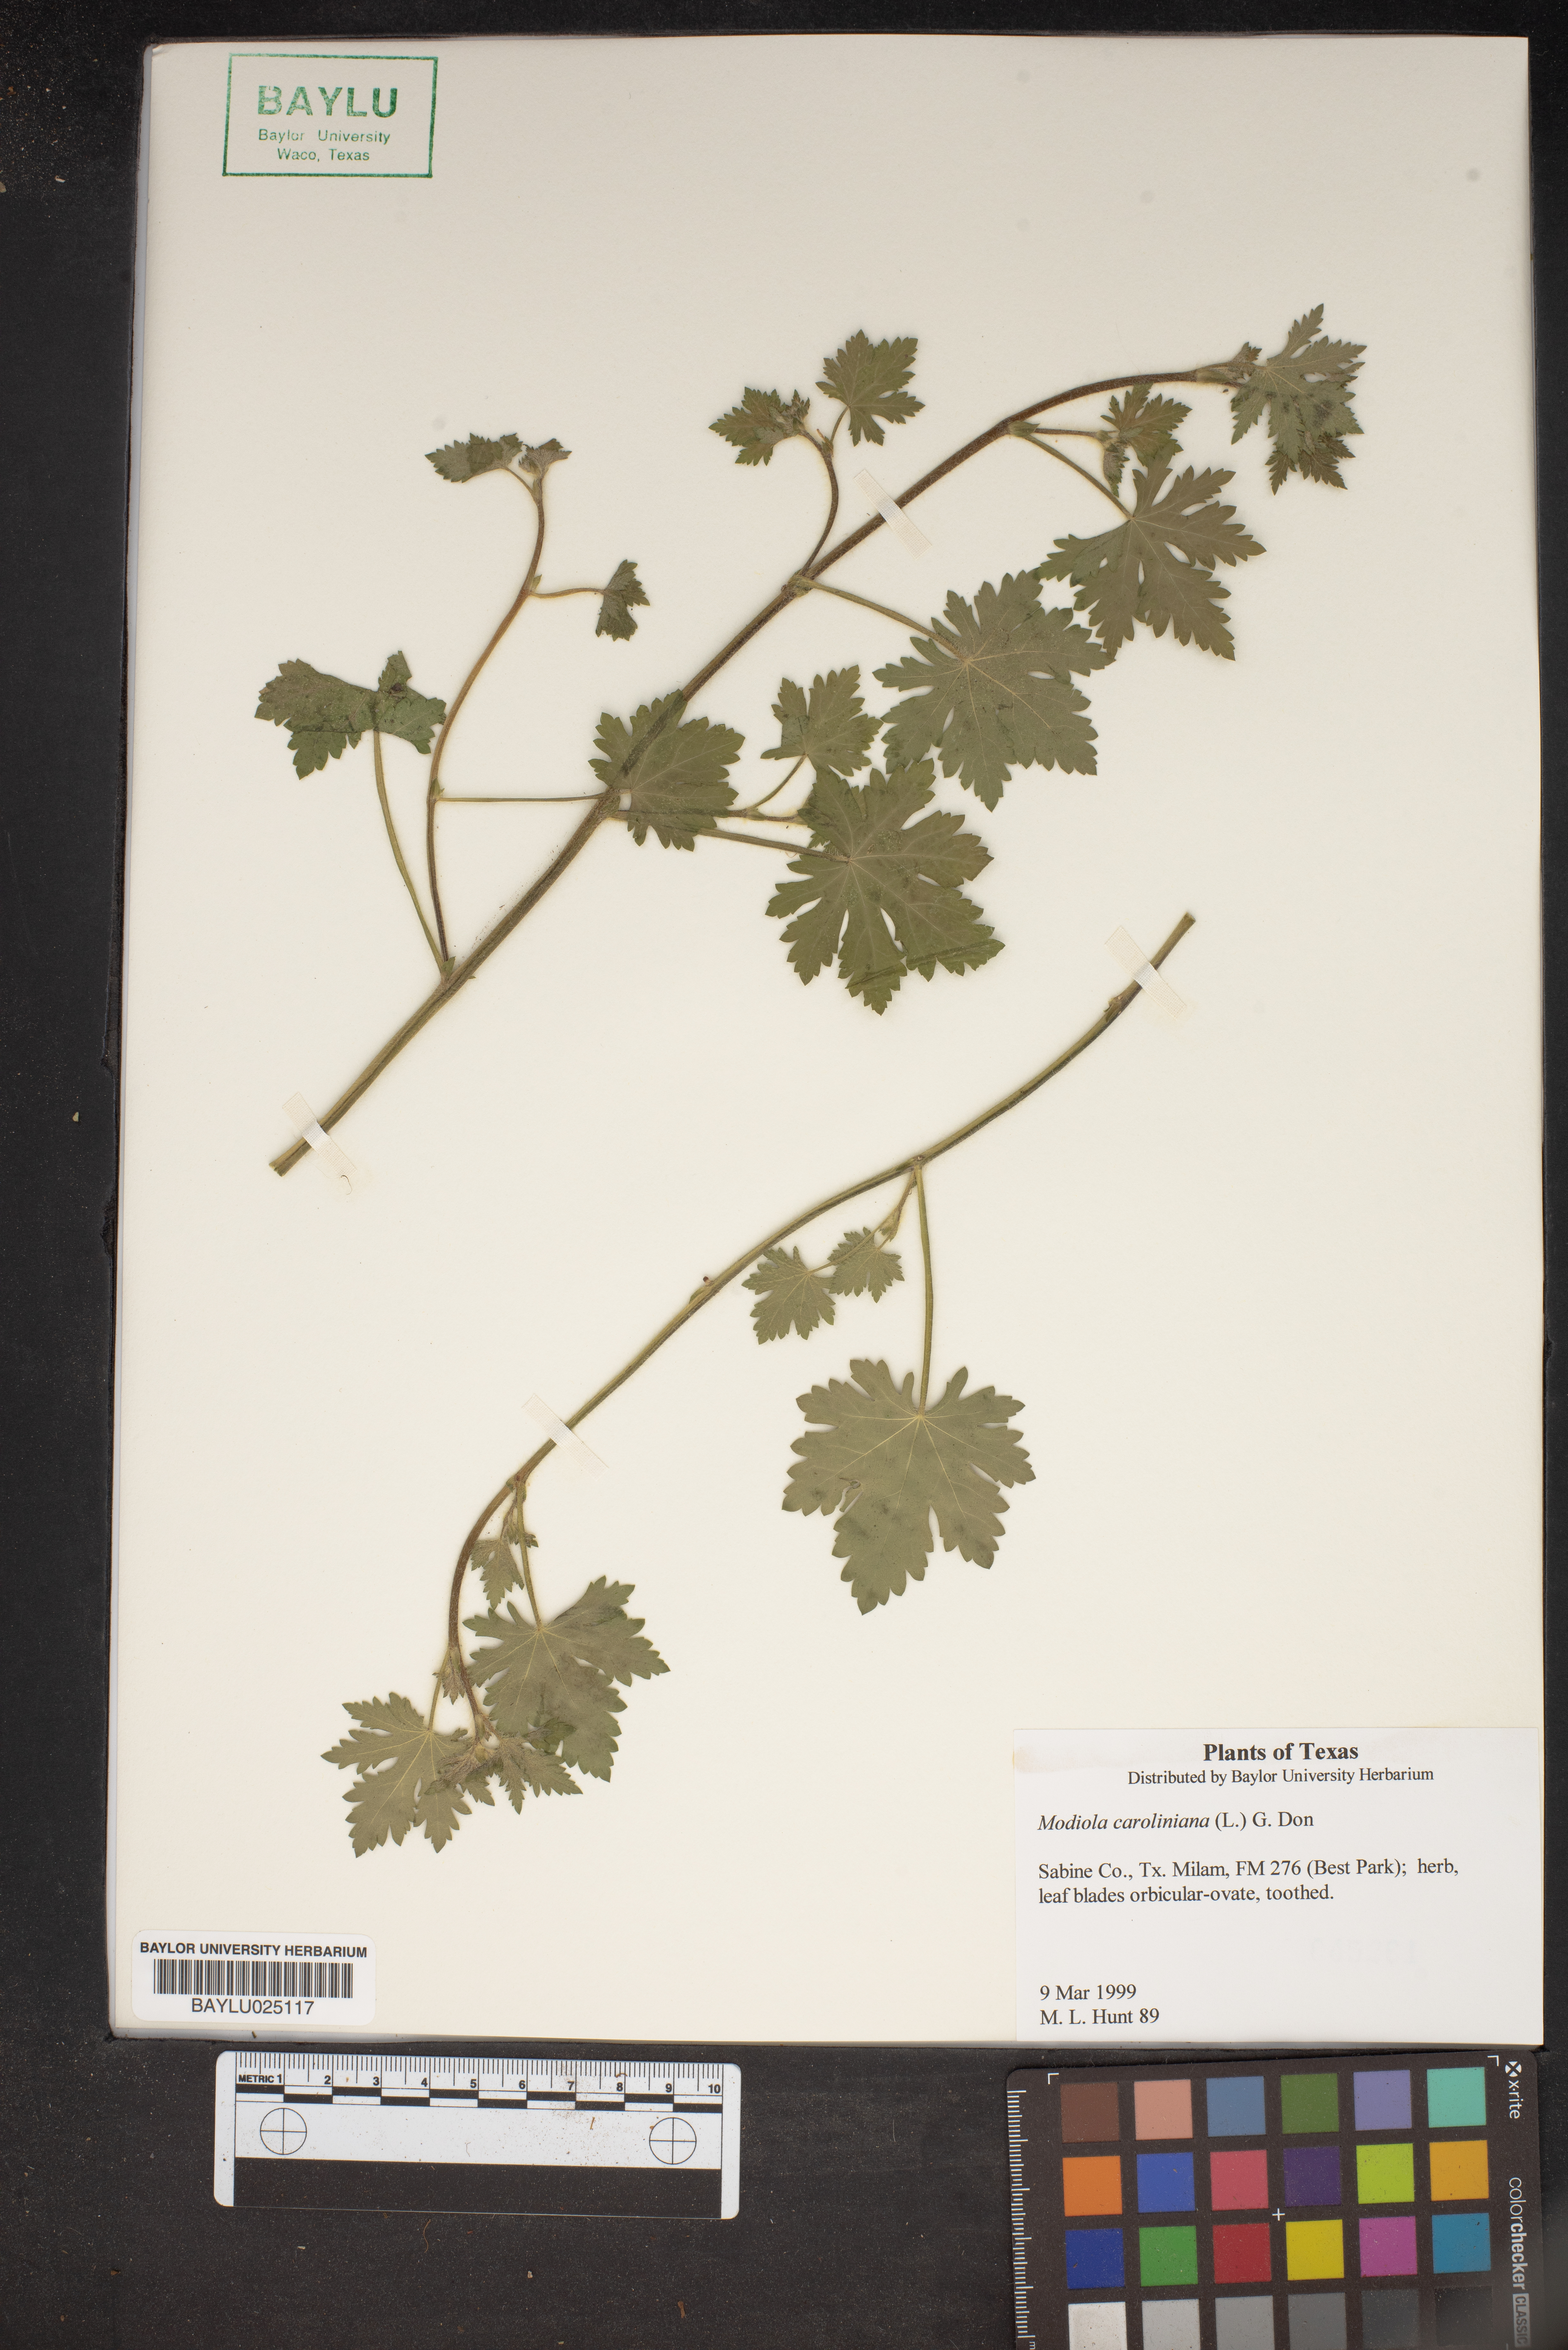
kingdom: Plantae
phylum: Tracheophyta
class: Magnoliopsida
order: Malvales
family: Malvaceae
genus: Modiola
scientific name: Modiola caroliniana
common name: Carolina bristlemallow
